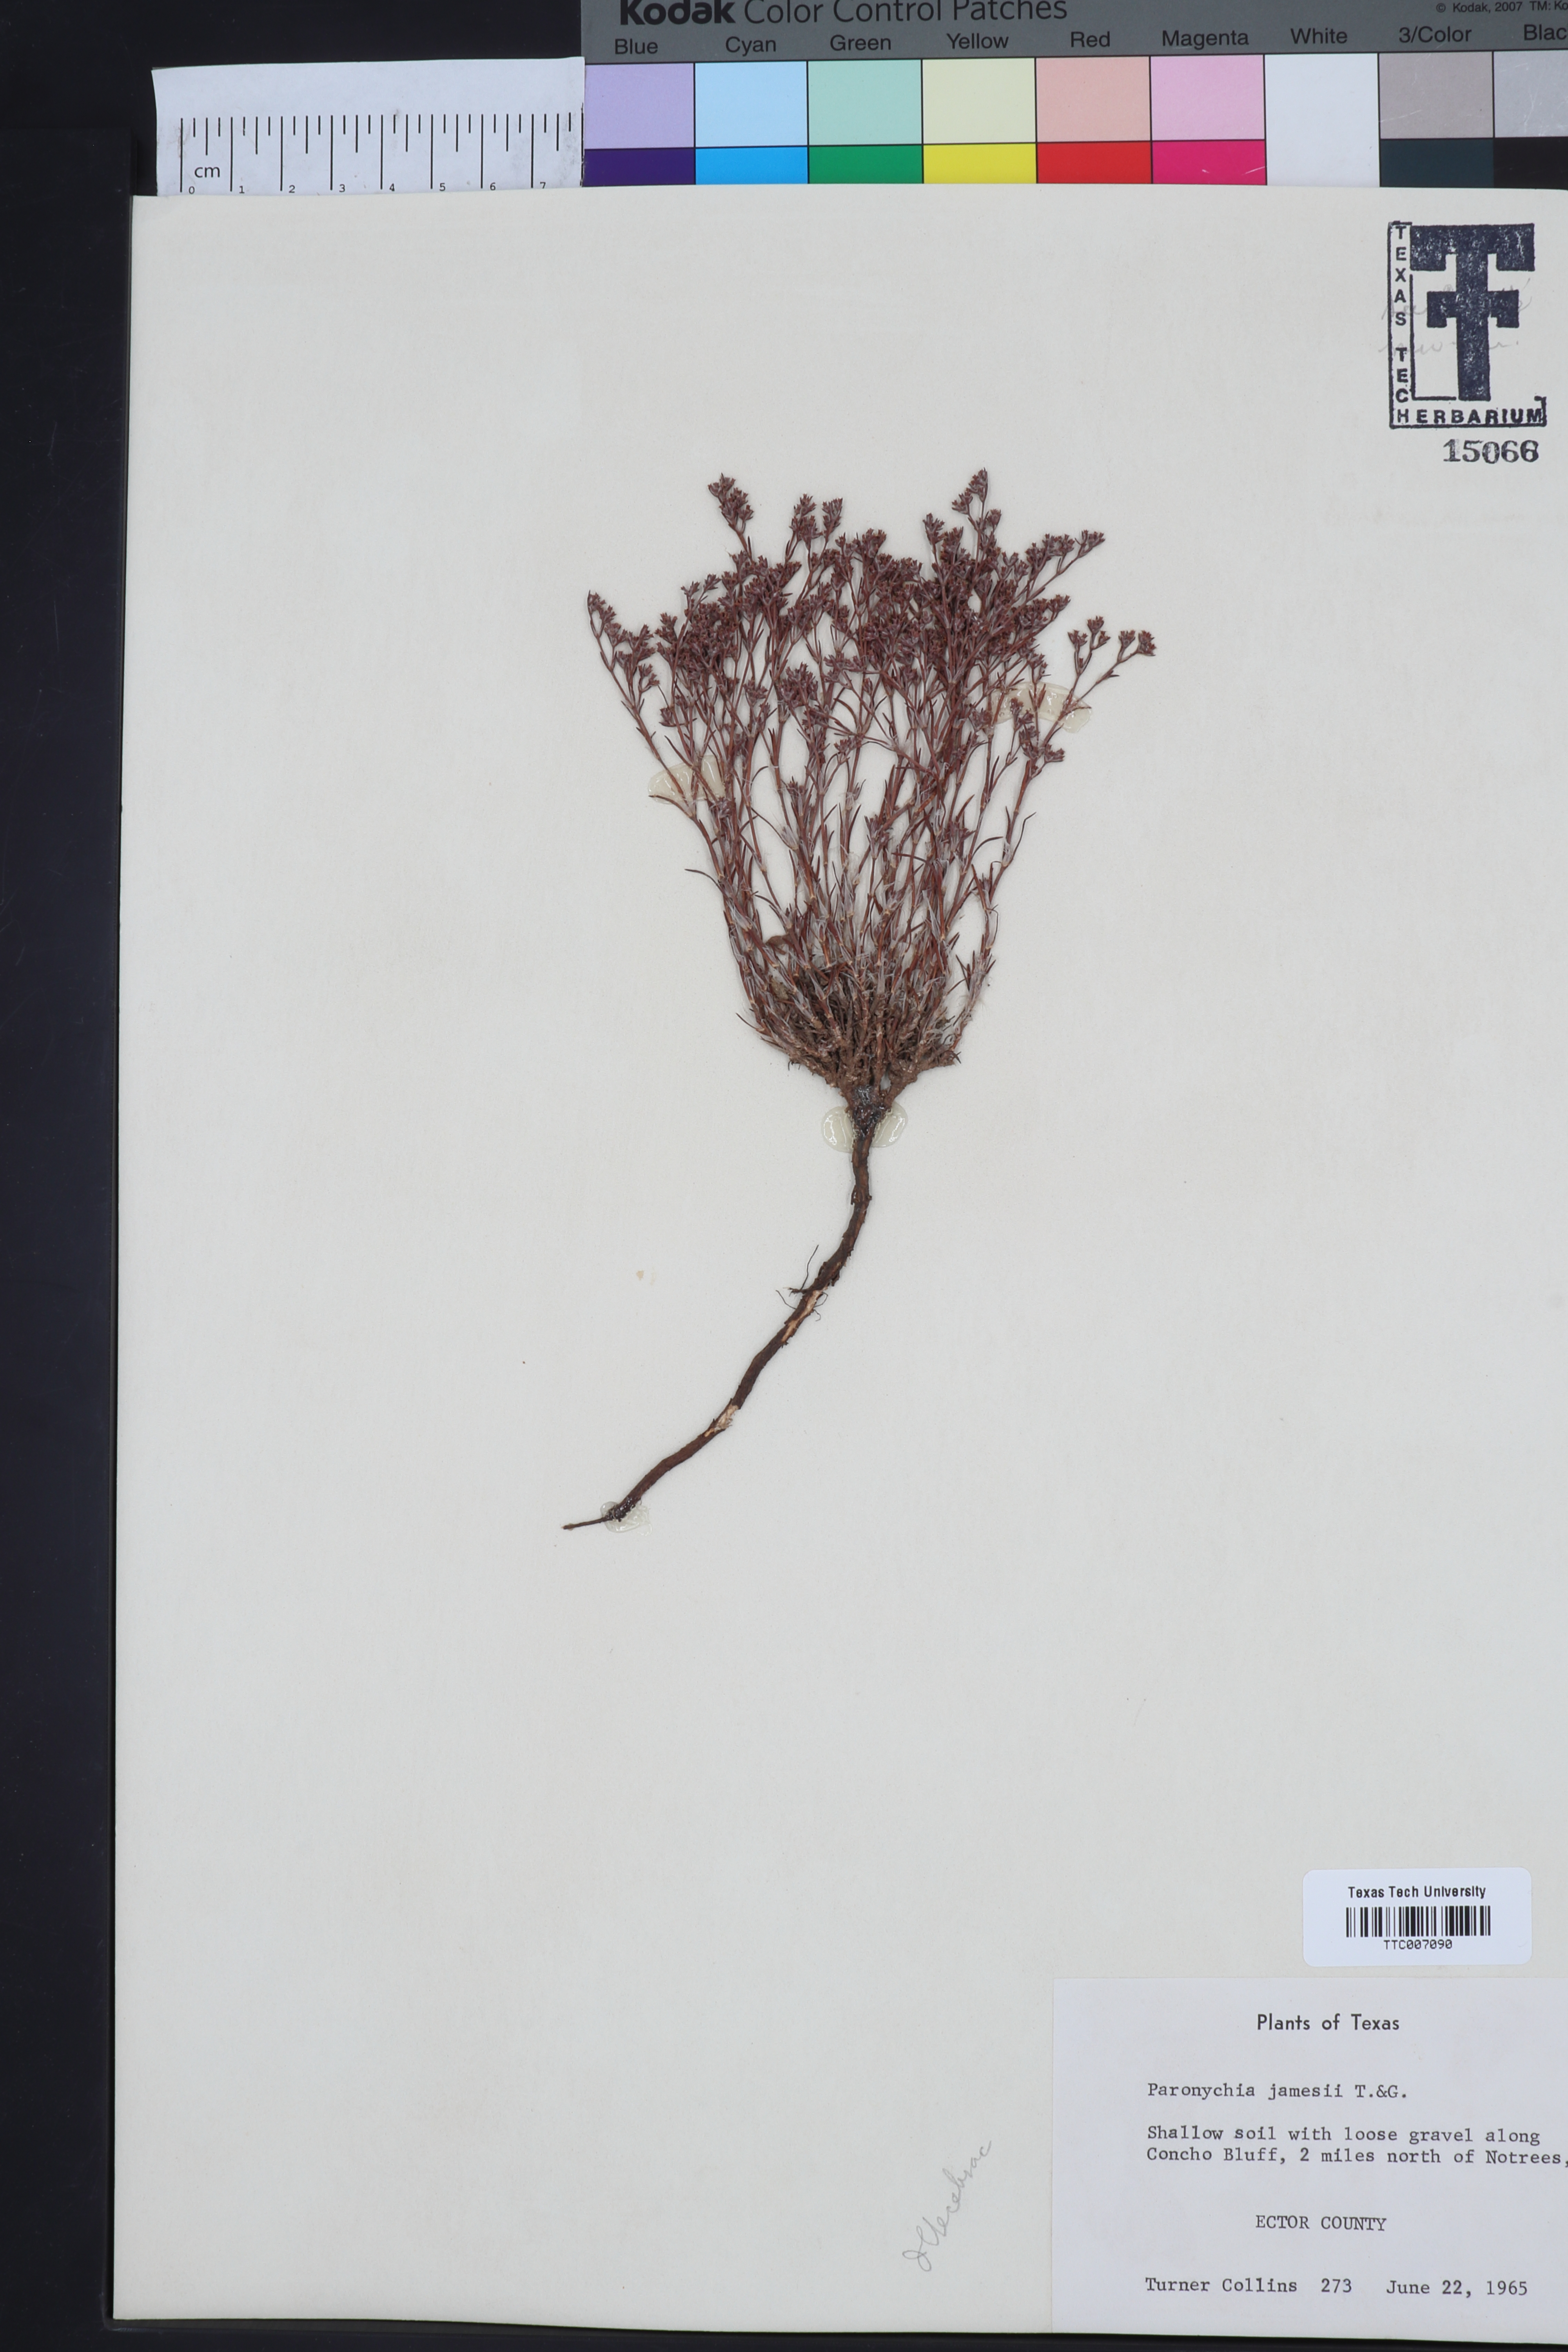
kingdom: Plantae
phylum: Tracheophyta
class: Magnoliopsida
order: Caryophyllales
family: Caryophyllaceae
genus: Paronychia
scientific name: Paronychia jamesii
